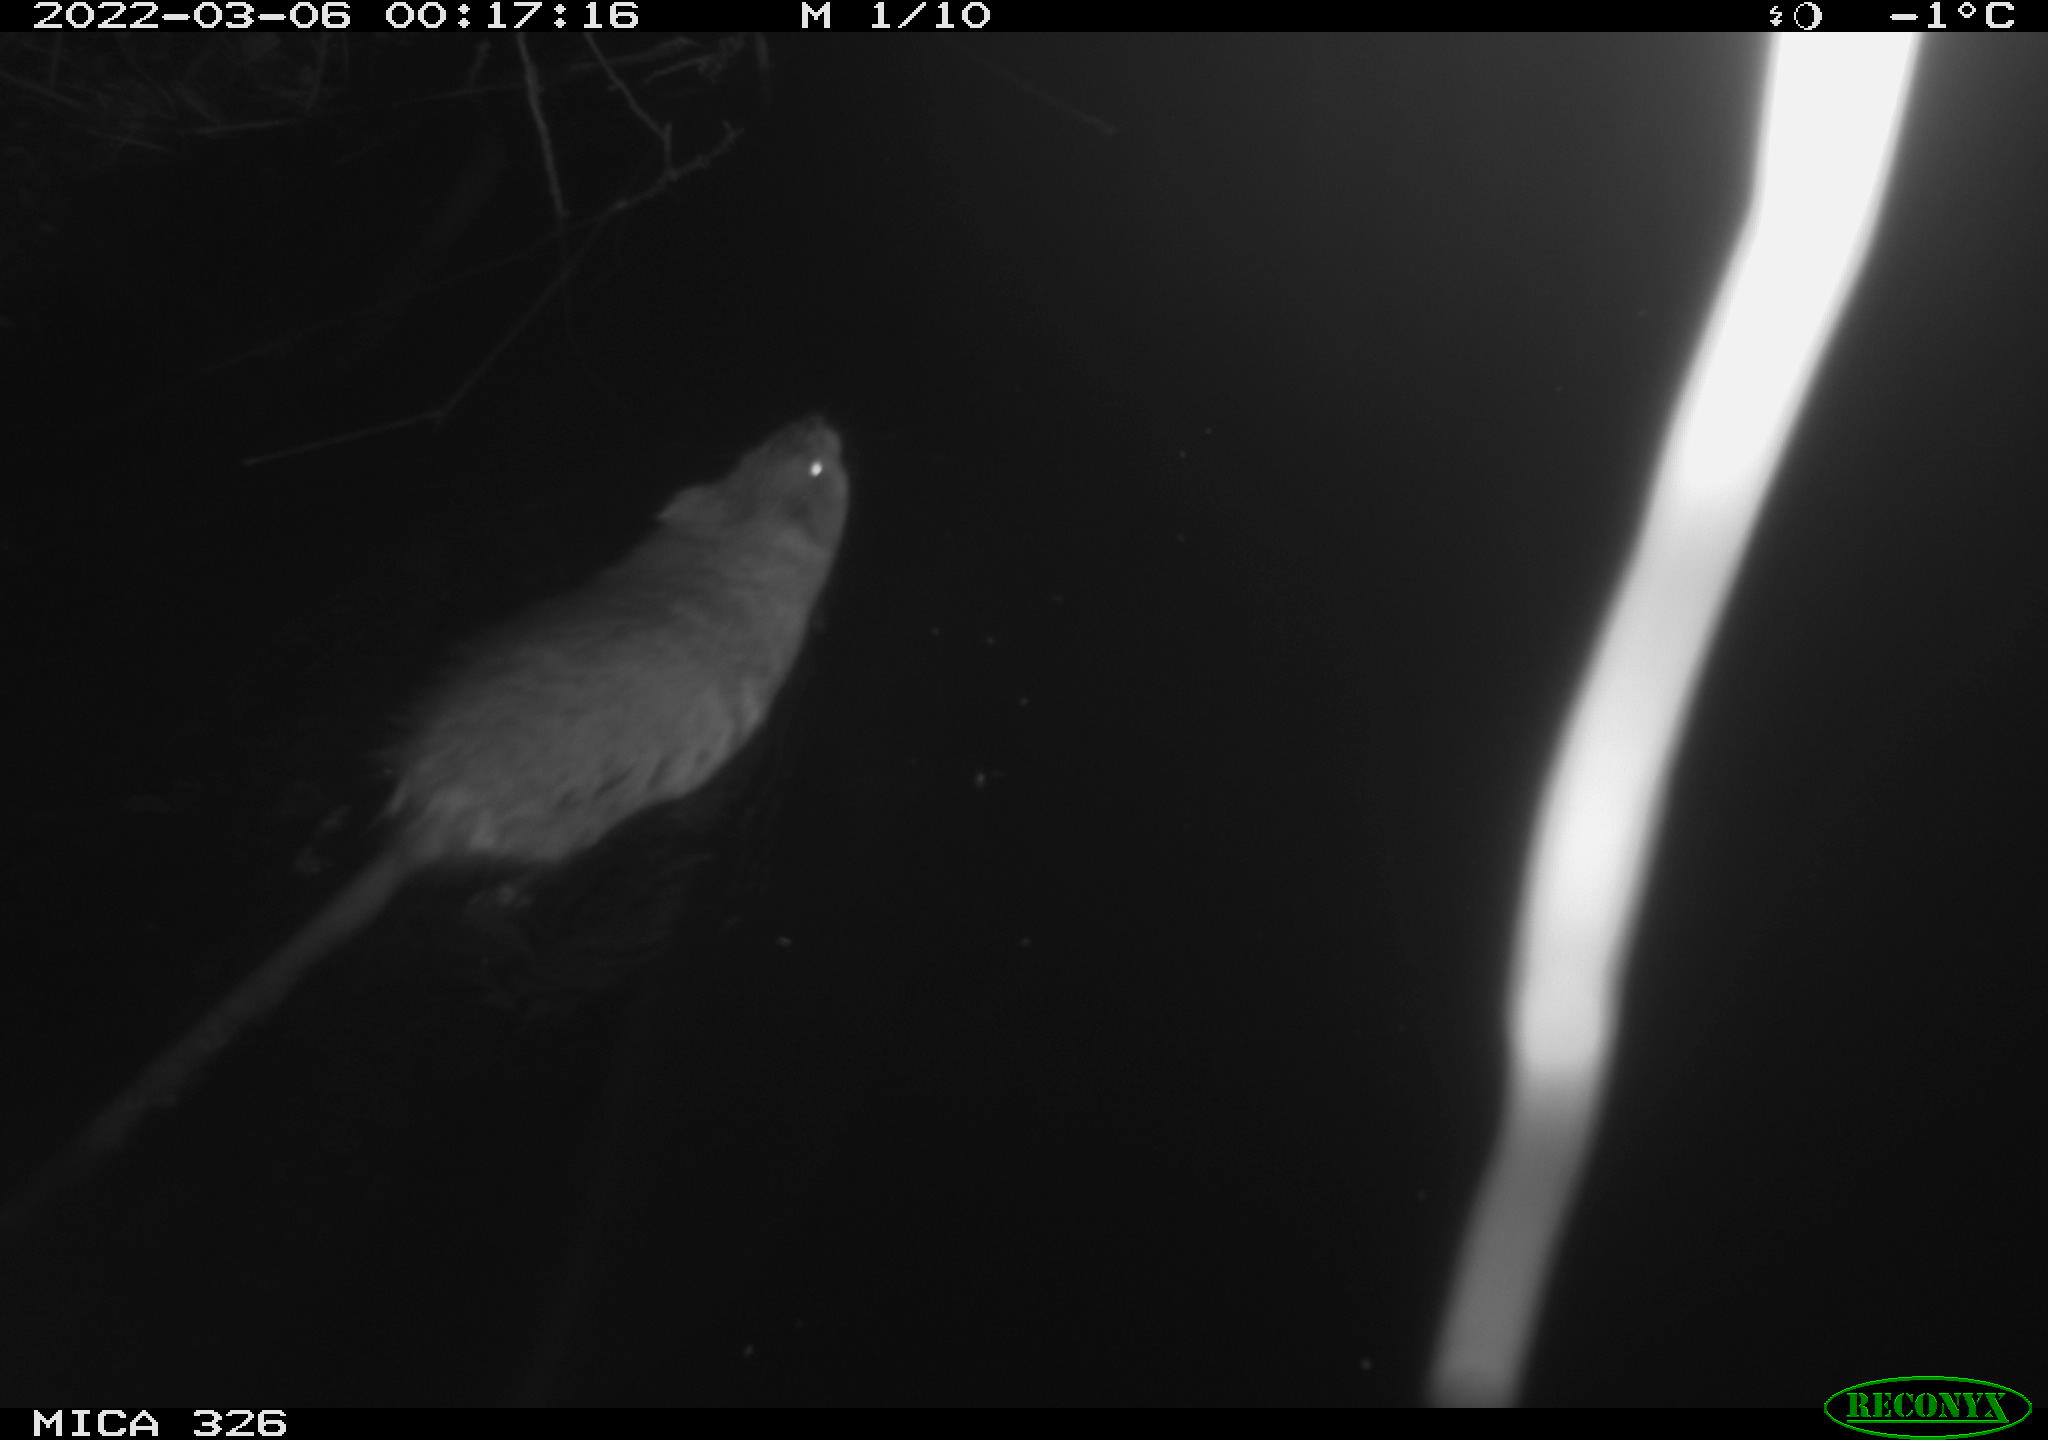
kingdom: Animalia
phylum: Chordata
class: Mammalia
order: Rodentia
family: Cricetidae
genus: Ondatra
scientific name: Ondatra zibethicus
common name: Muskrat
